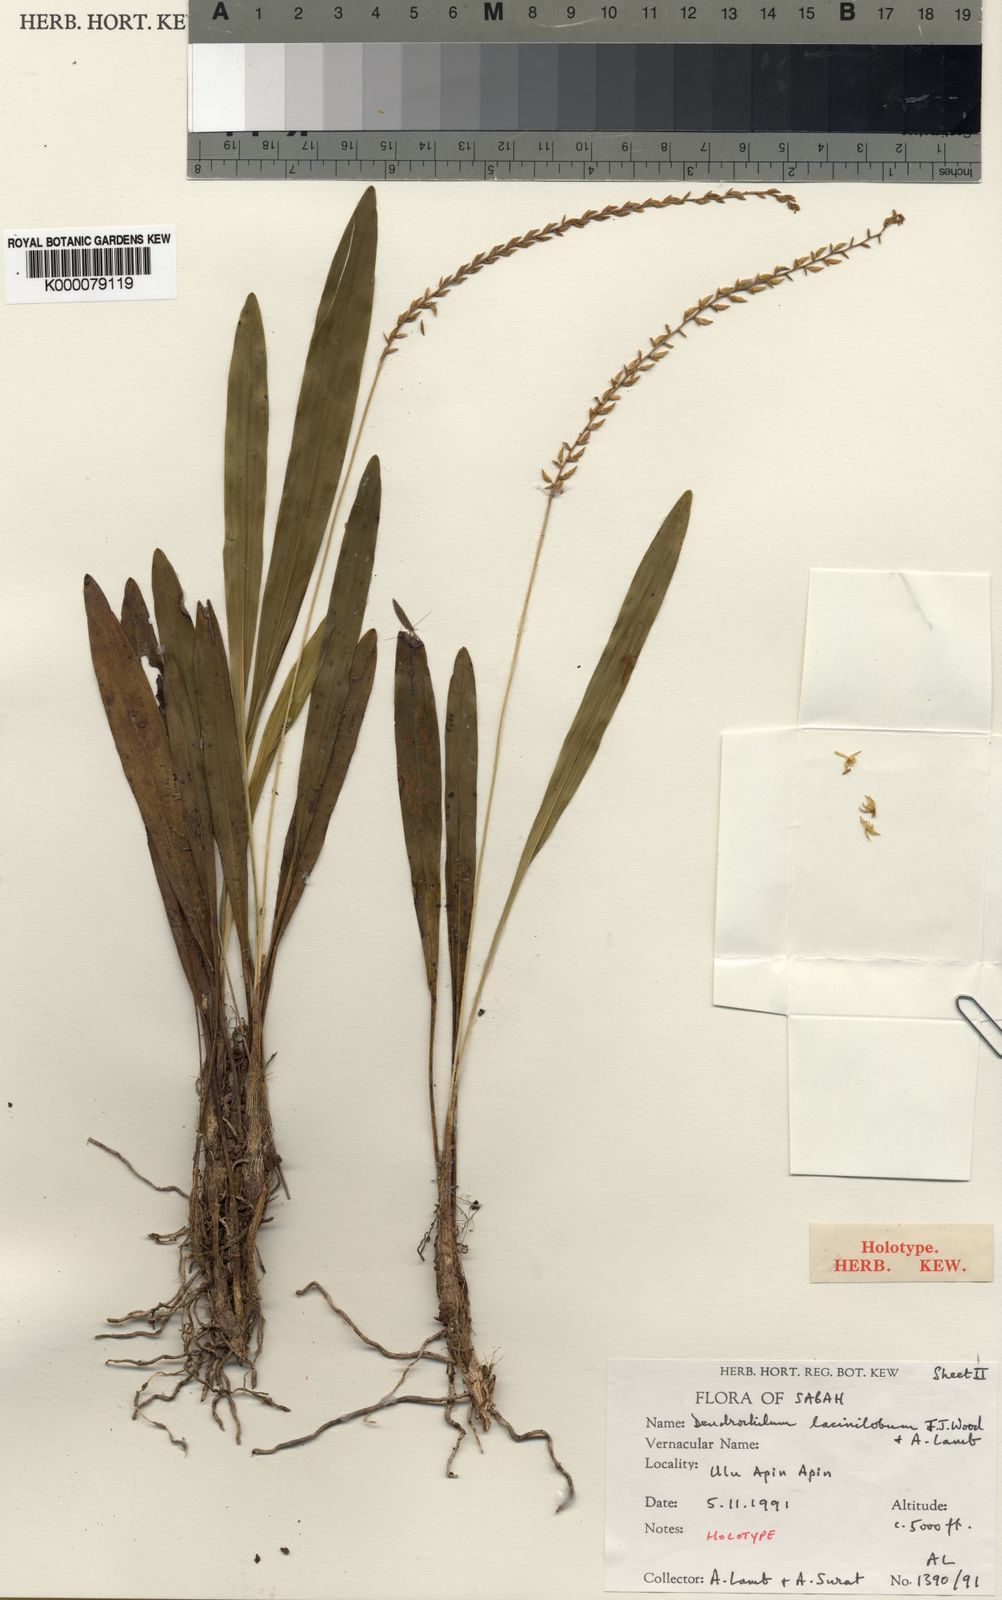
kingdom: Plantae
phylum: Tracheophyta
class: Liliopsida
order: Asparagales
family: Orchidaceae
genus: Coelogyne
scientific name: Coelogyne laciniloba
